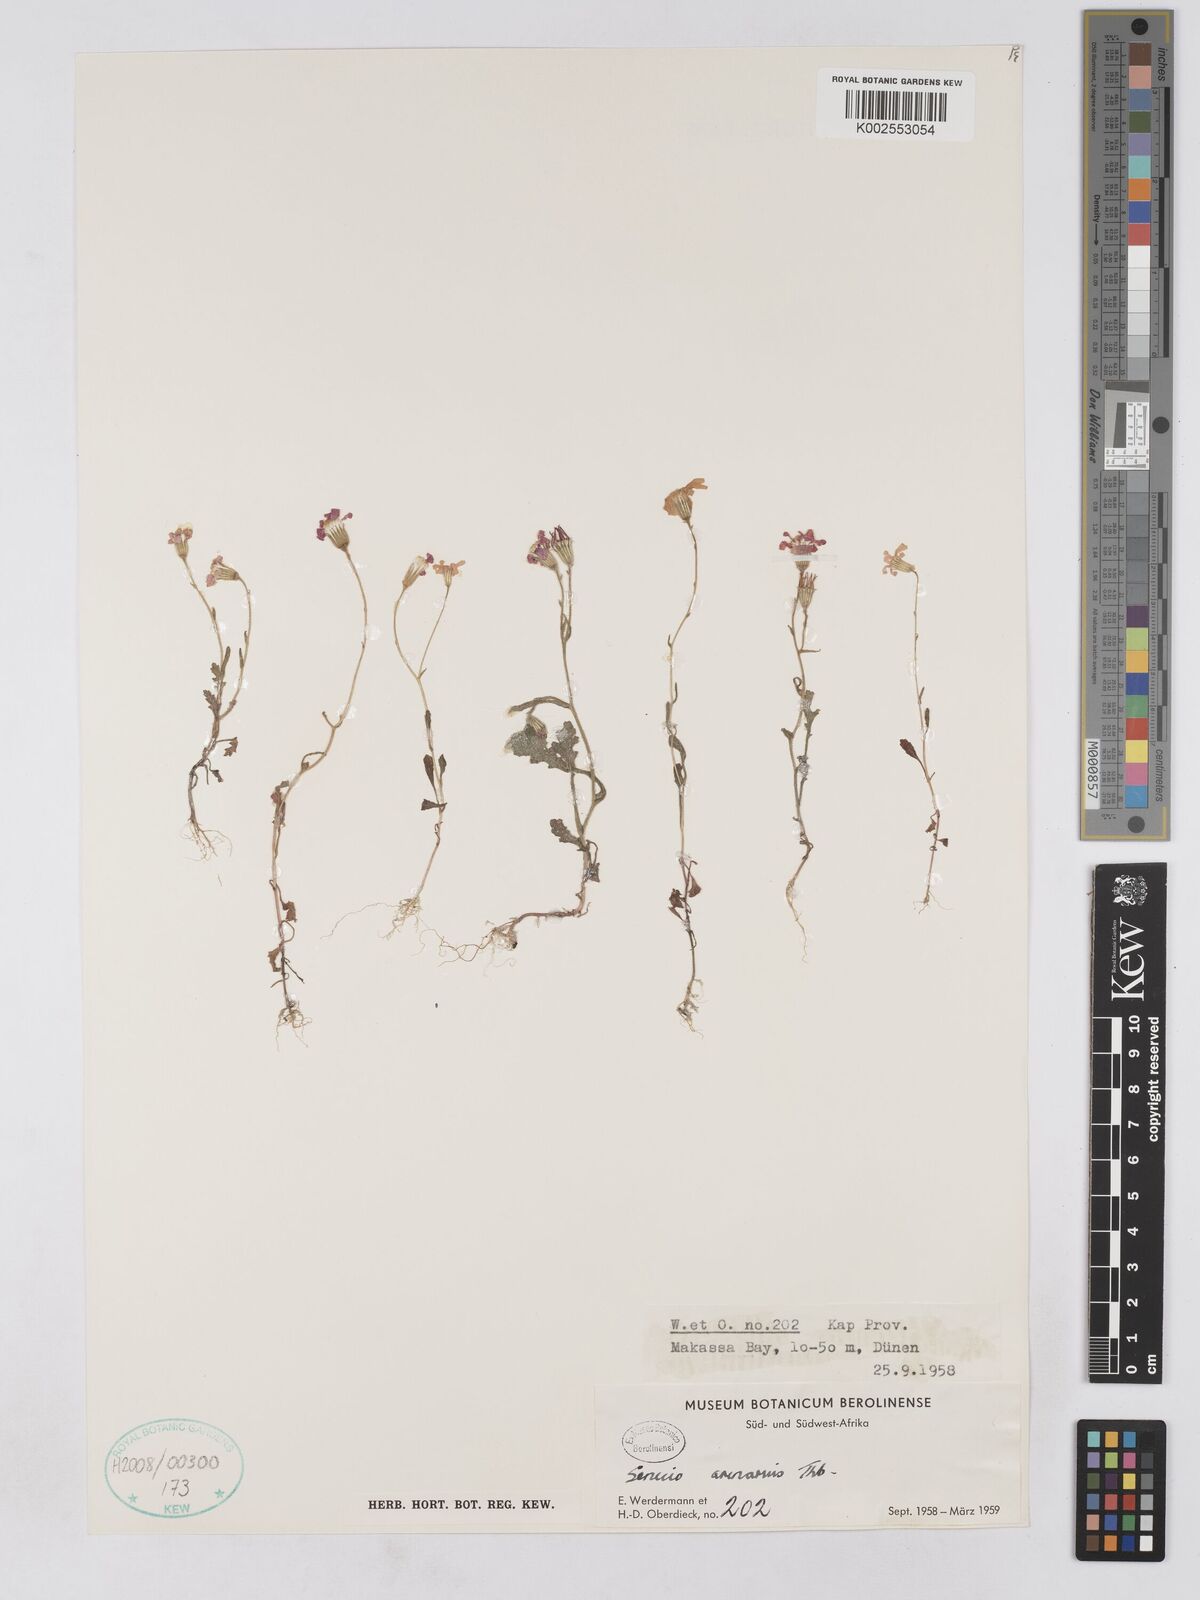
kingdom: Plantae
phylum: Tracheophyta
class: Magnoliopsida
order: Asterales
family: Asteraceae
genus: Senecio
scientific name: Senecio arenarius
